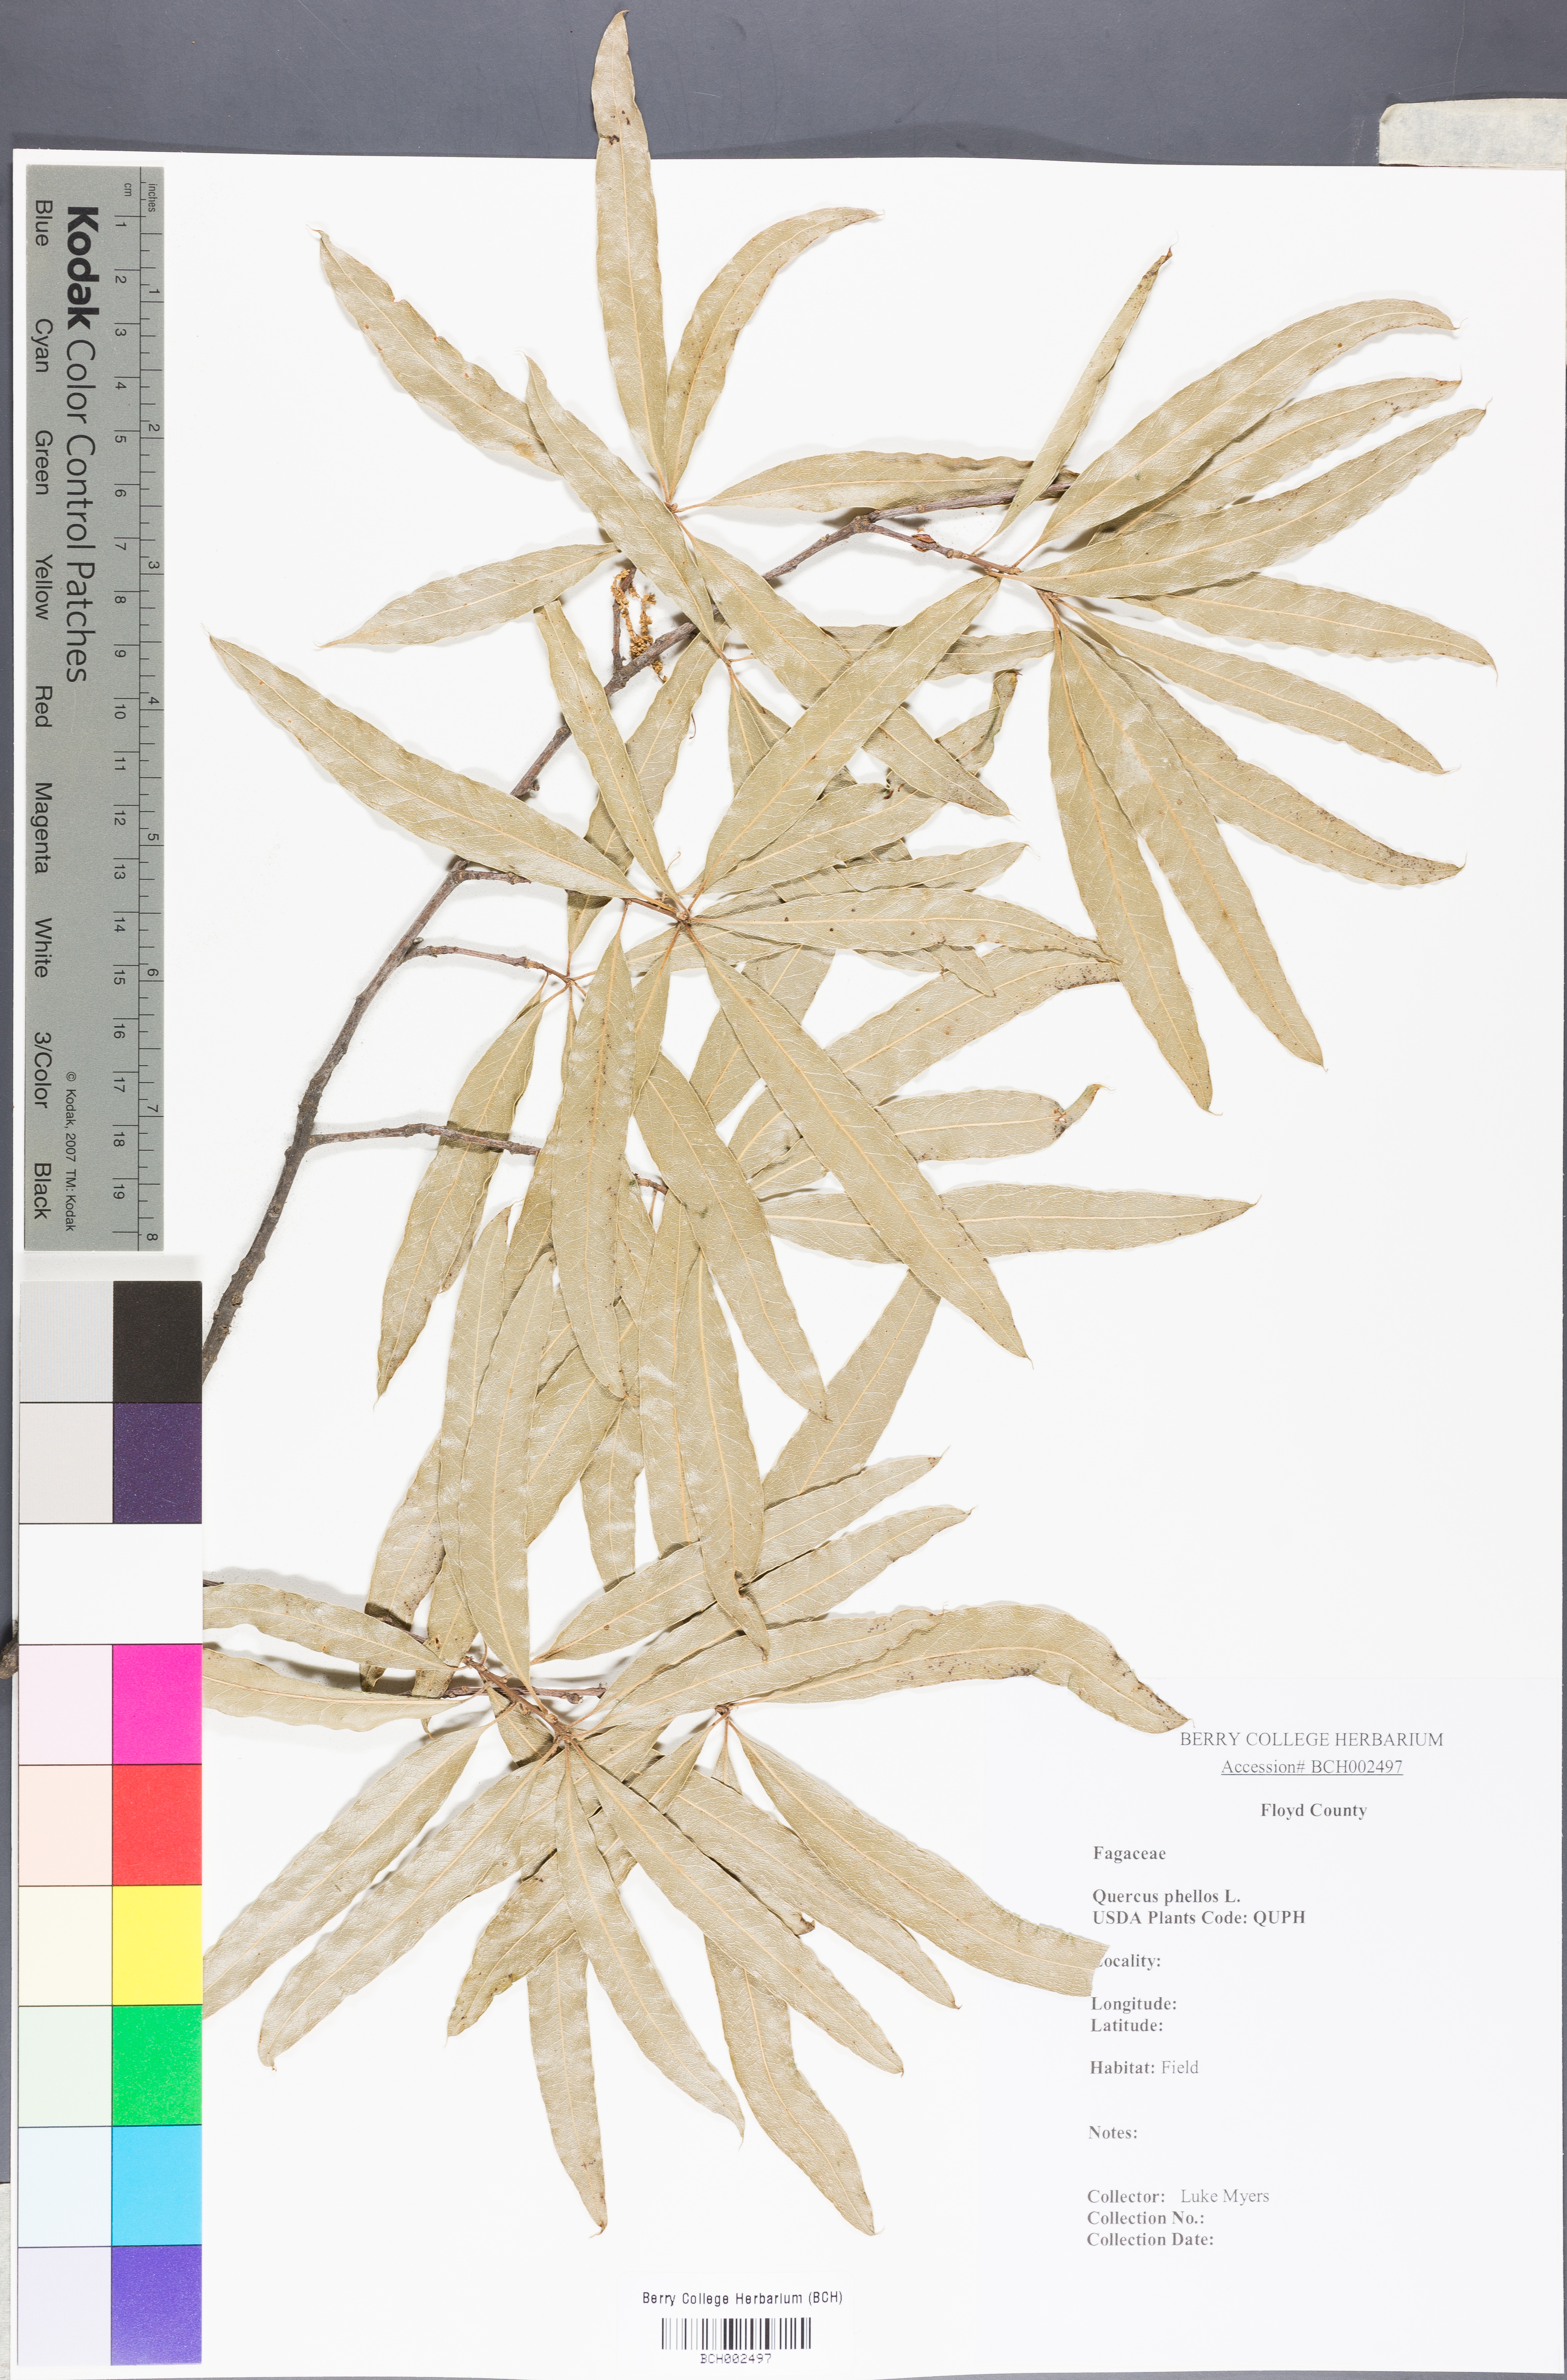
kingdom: Plantae
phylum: Tracheophyta
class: Magnoliopsida
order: Fagales
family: Fagaceae
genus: Quercus
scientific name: Quercus phellos
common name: Willow oak
